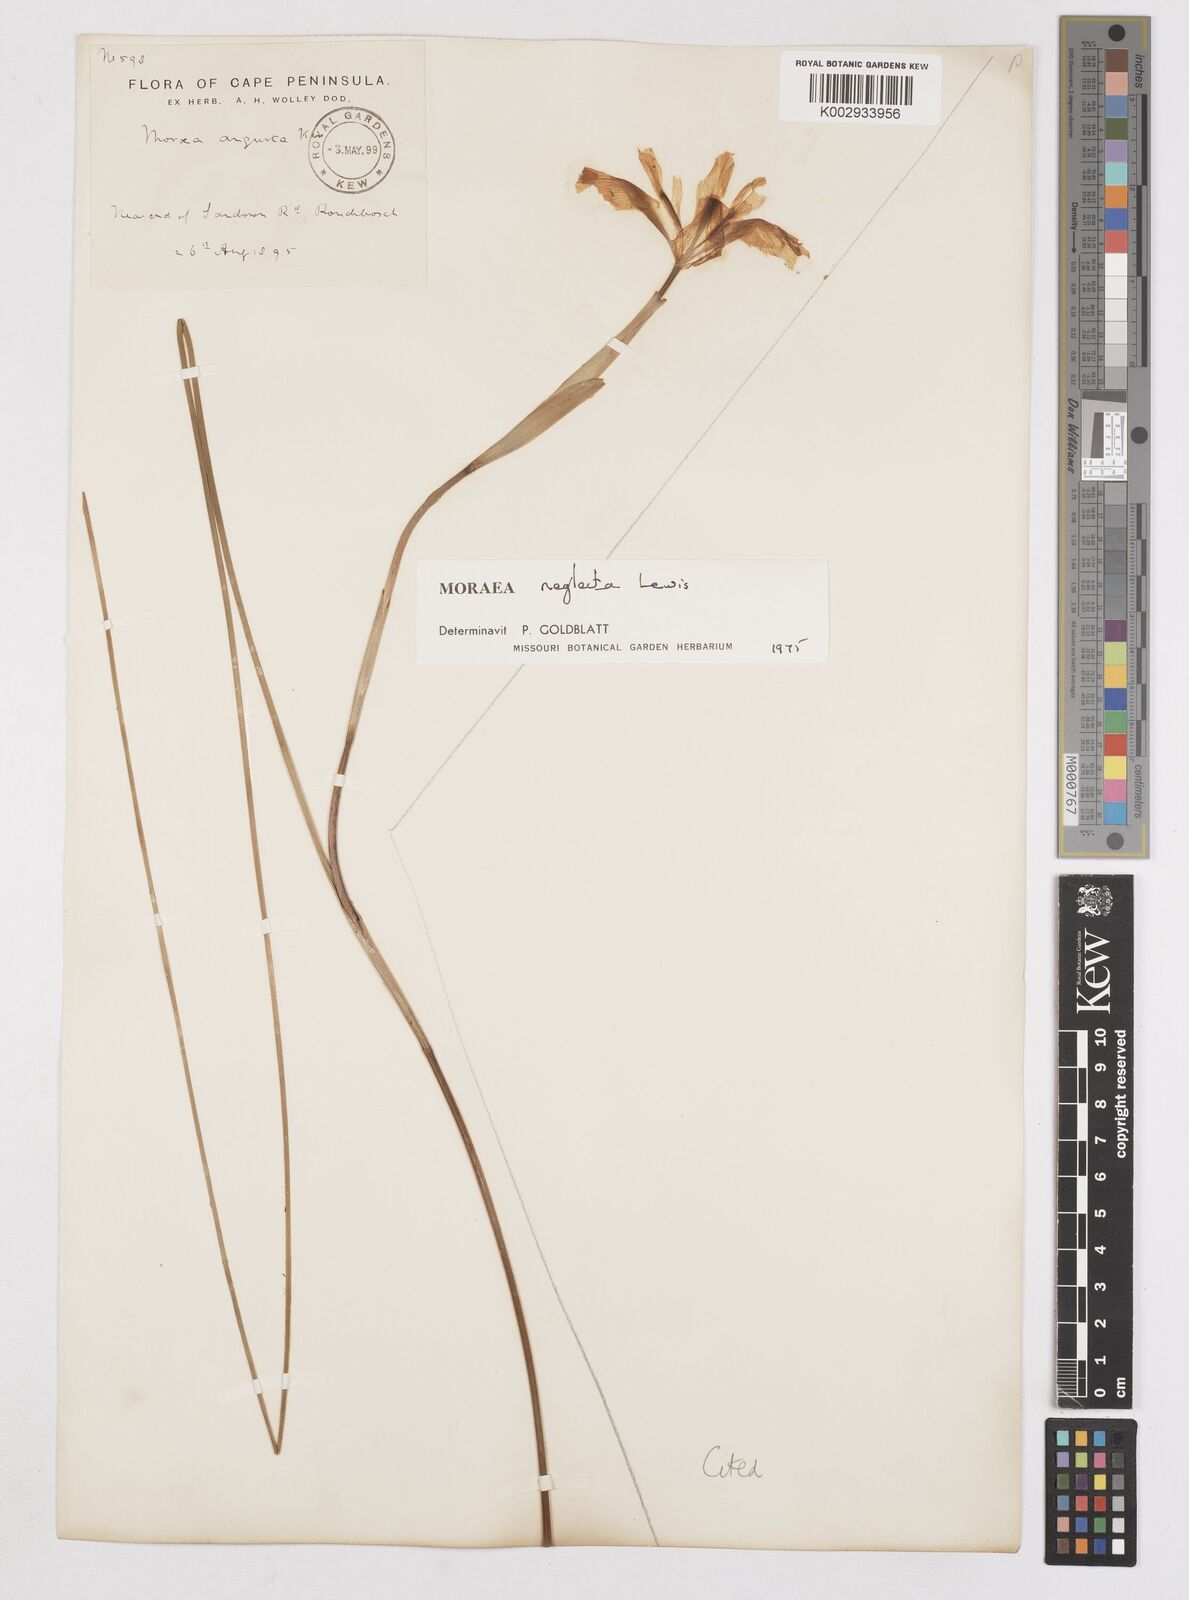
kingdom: Plantae
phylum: Tracheophyta
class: Liliopsida
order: Asparagales
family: Iridaceae
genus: Moraea
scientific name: Moraea neglecta
